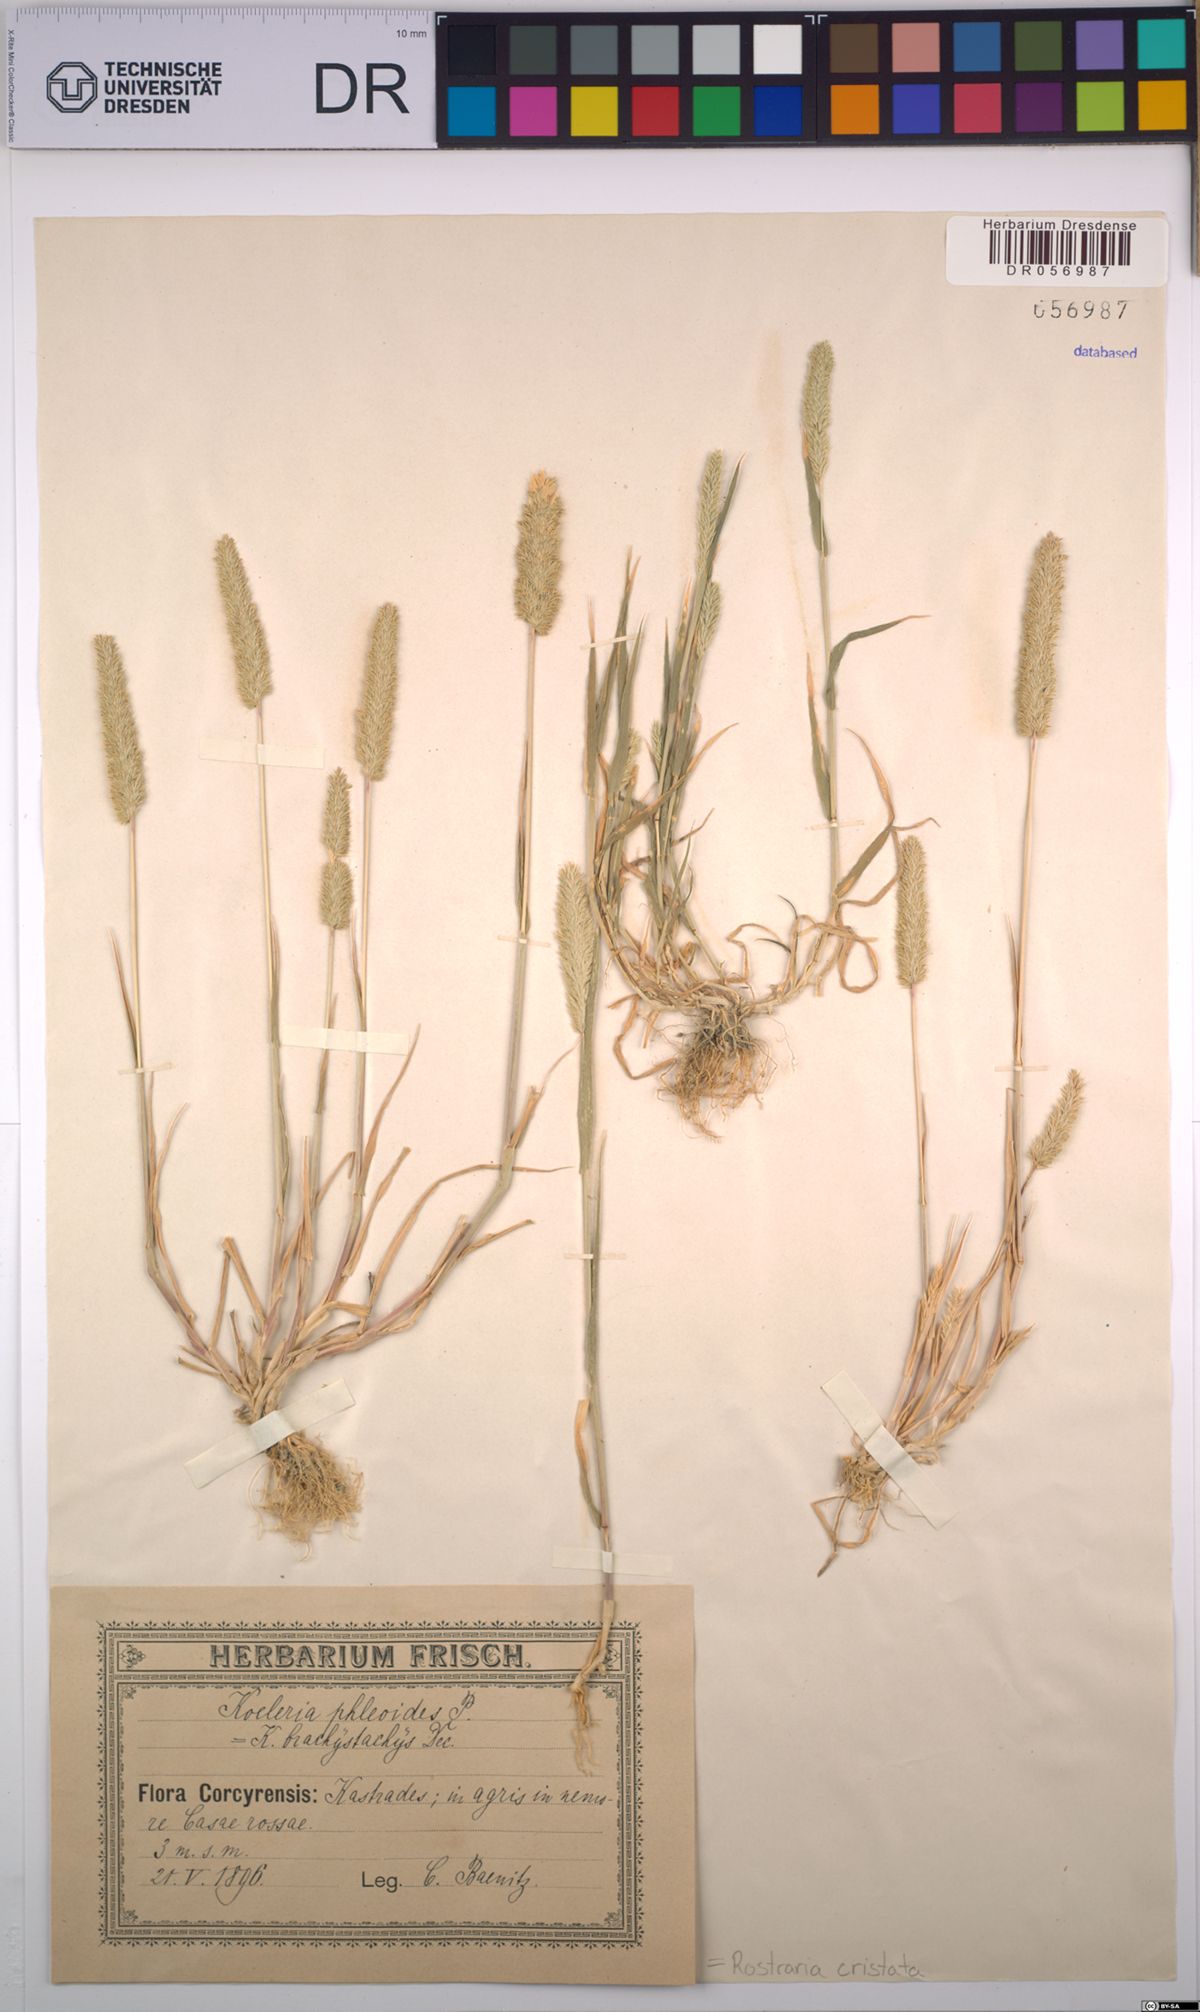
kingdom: Plantae
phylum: Tracheophyta
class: Liliopsida
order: Poales
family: Poaceae
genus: Rostraria
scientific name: Rostraria cristata
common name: Mediterranean hair-grass
